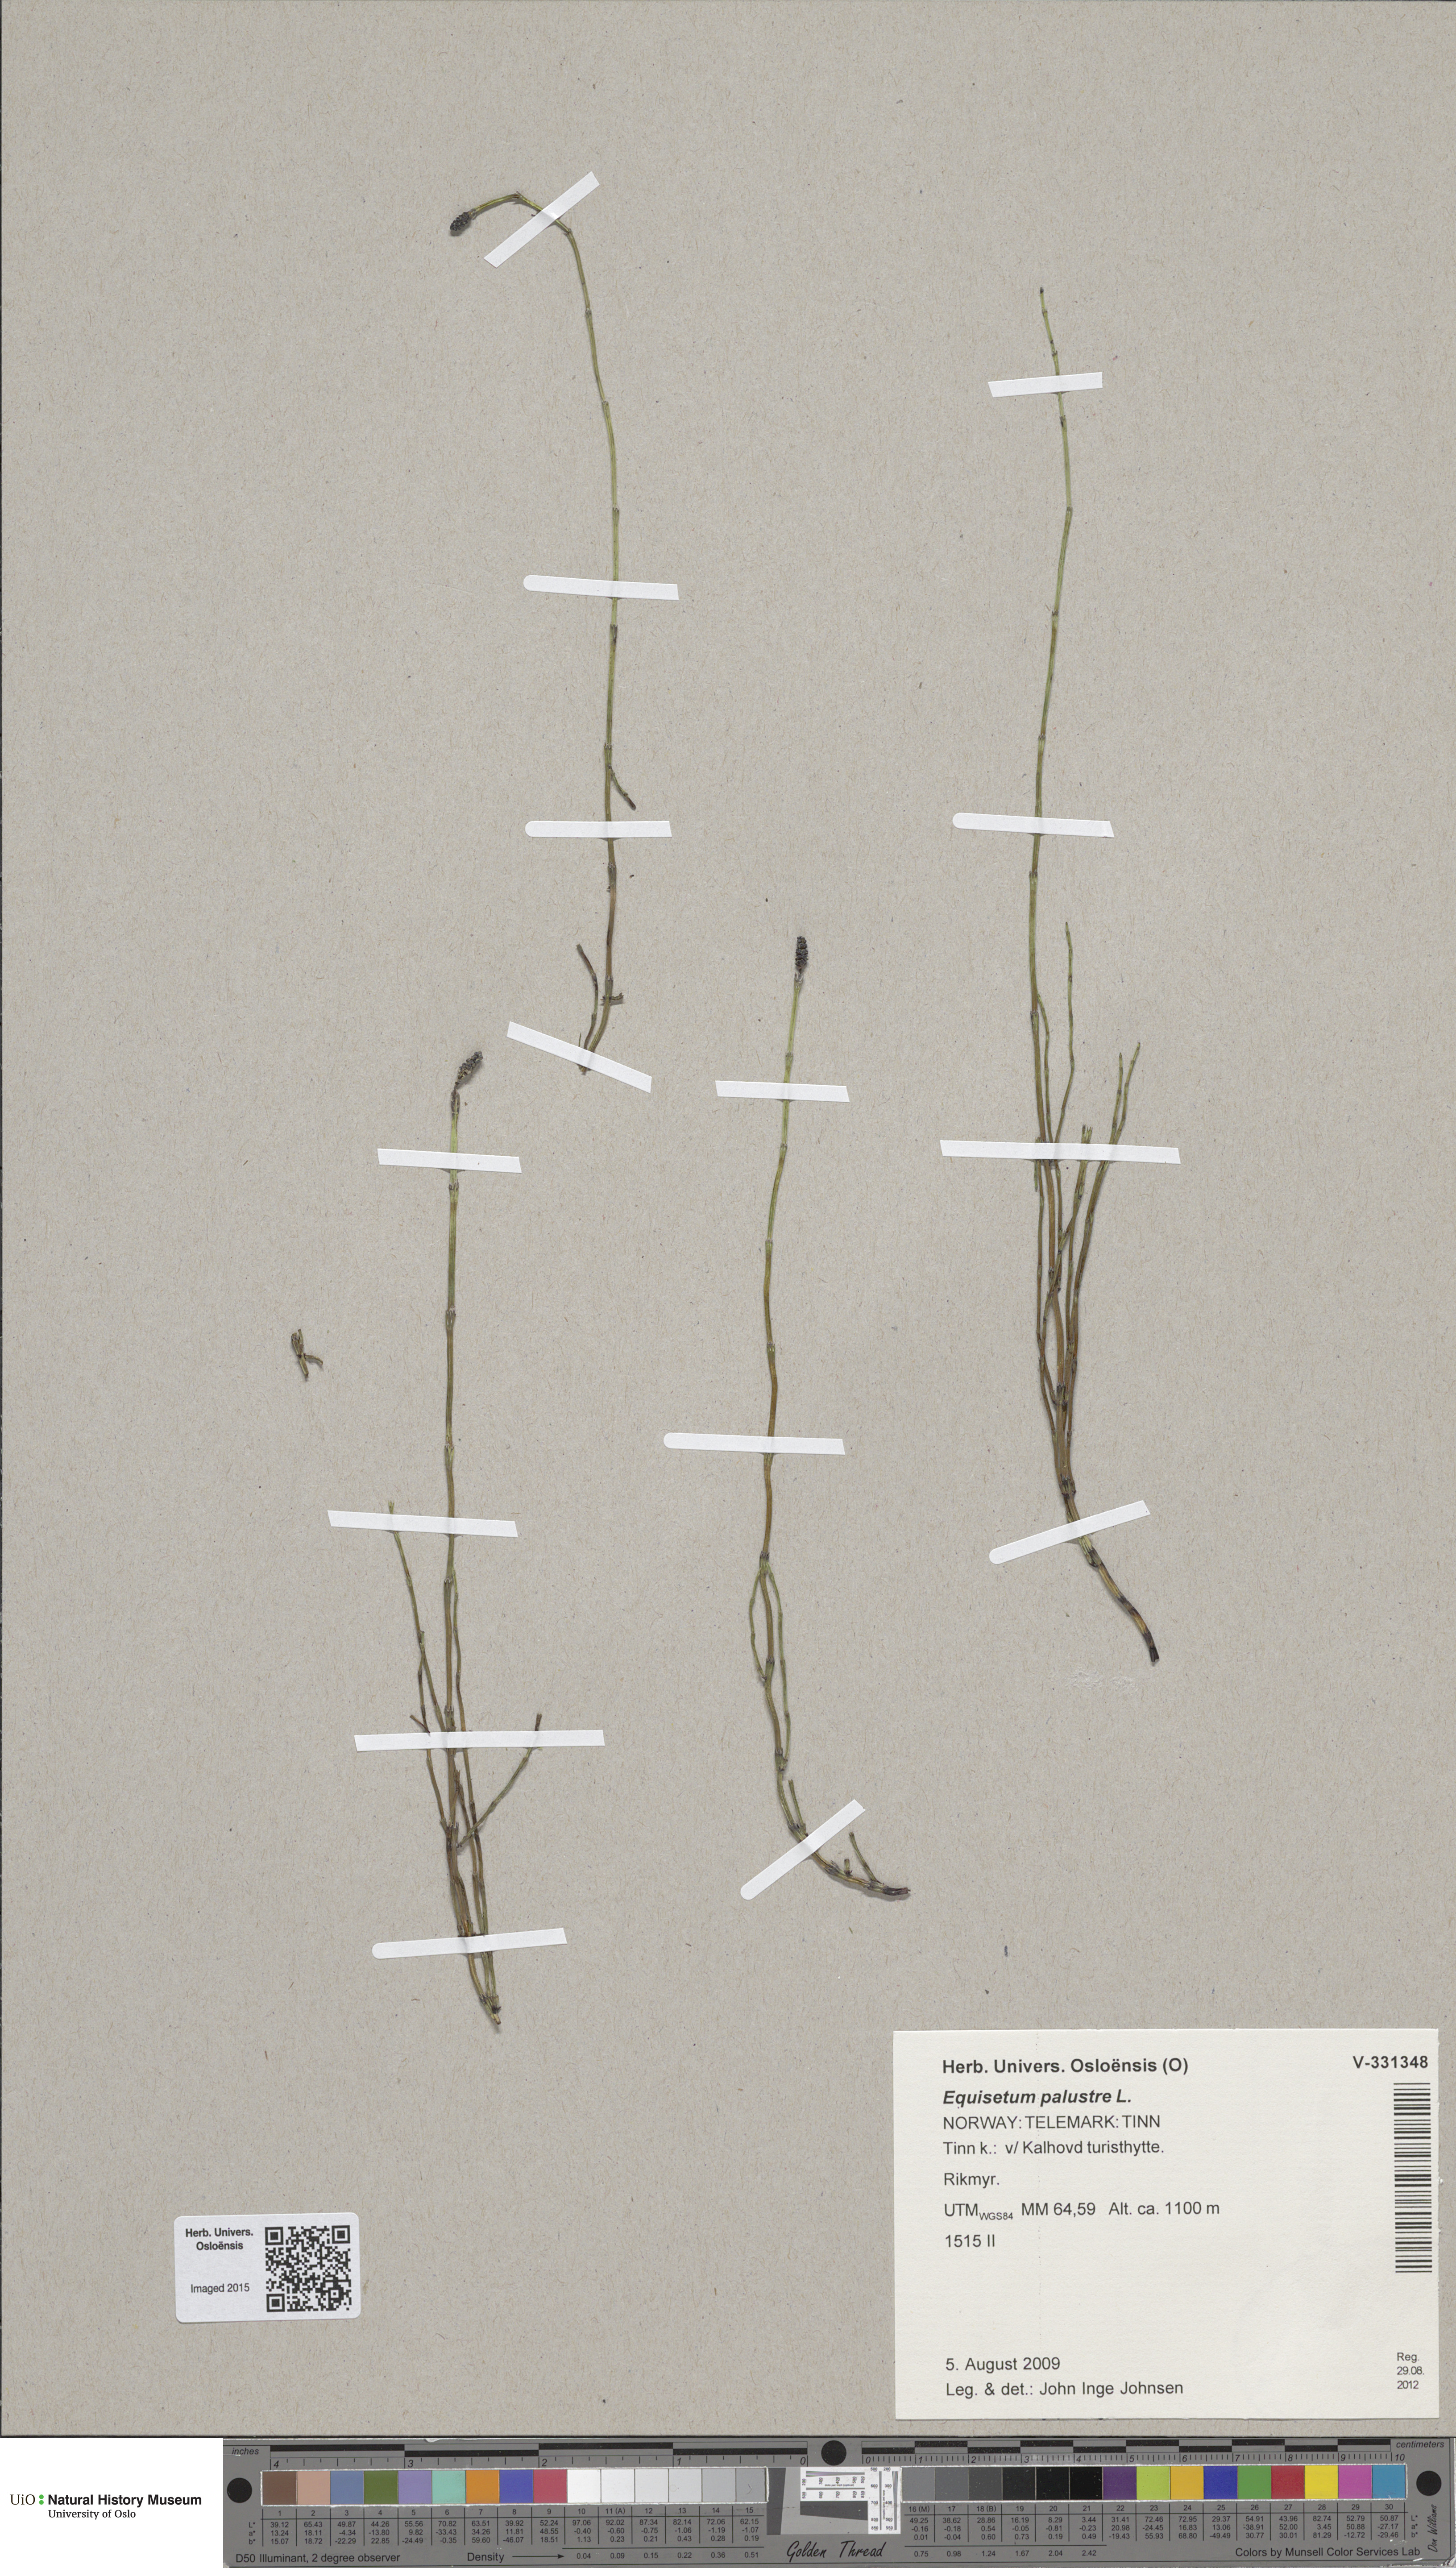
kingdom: Plantae
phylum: Tracheophyta
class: Polypodiopsida
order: Equisetales
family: Equisetaceae
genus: Equisetum
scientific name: Equisetum palustre
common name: Marsh horsetail
